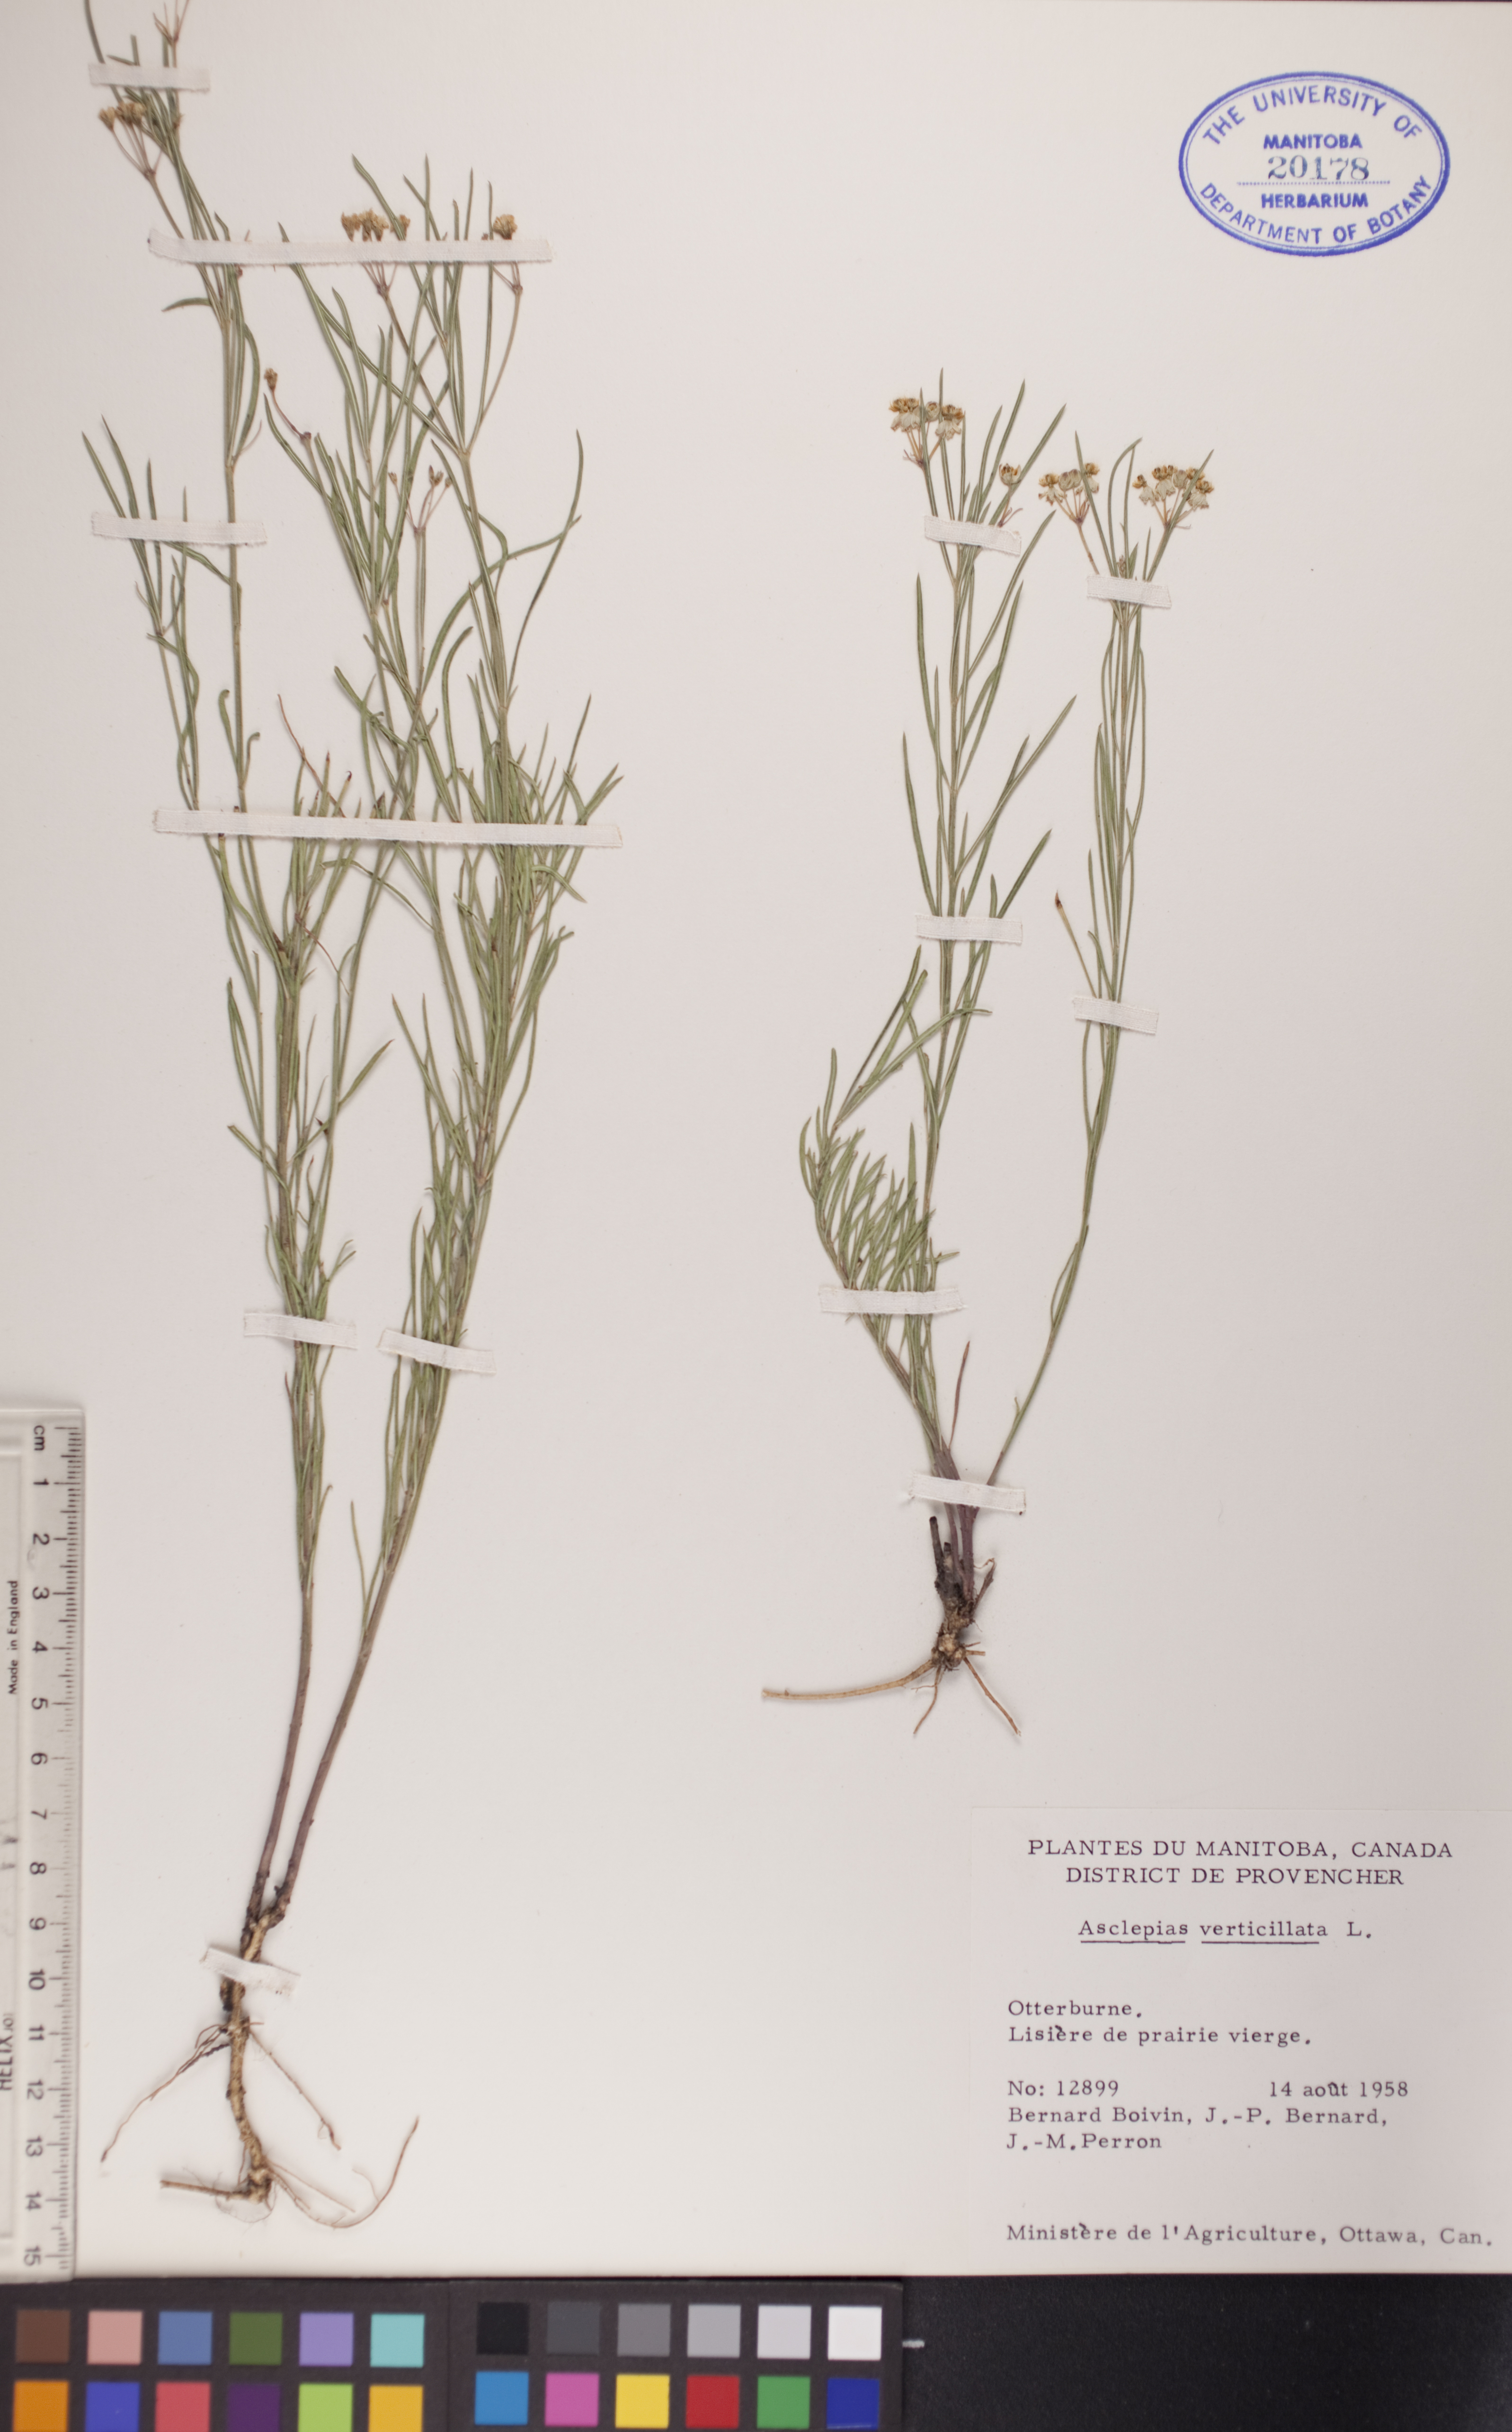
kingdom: Plantae
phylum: Tracheophyta
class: Magnoliopsida
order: Gentianales
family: Apocynaceae
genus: Asclepias
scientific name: Asclepias verticillata
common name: Eastern whorled milkweed
